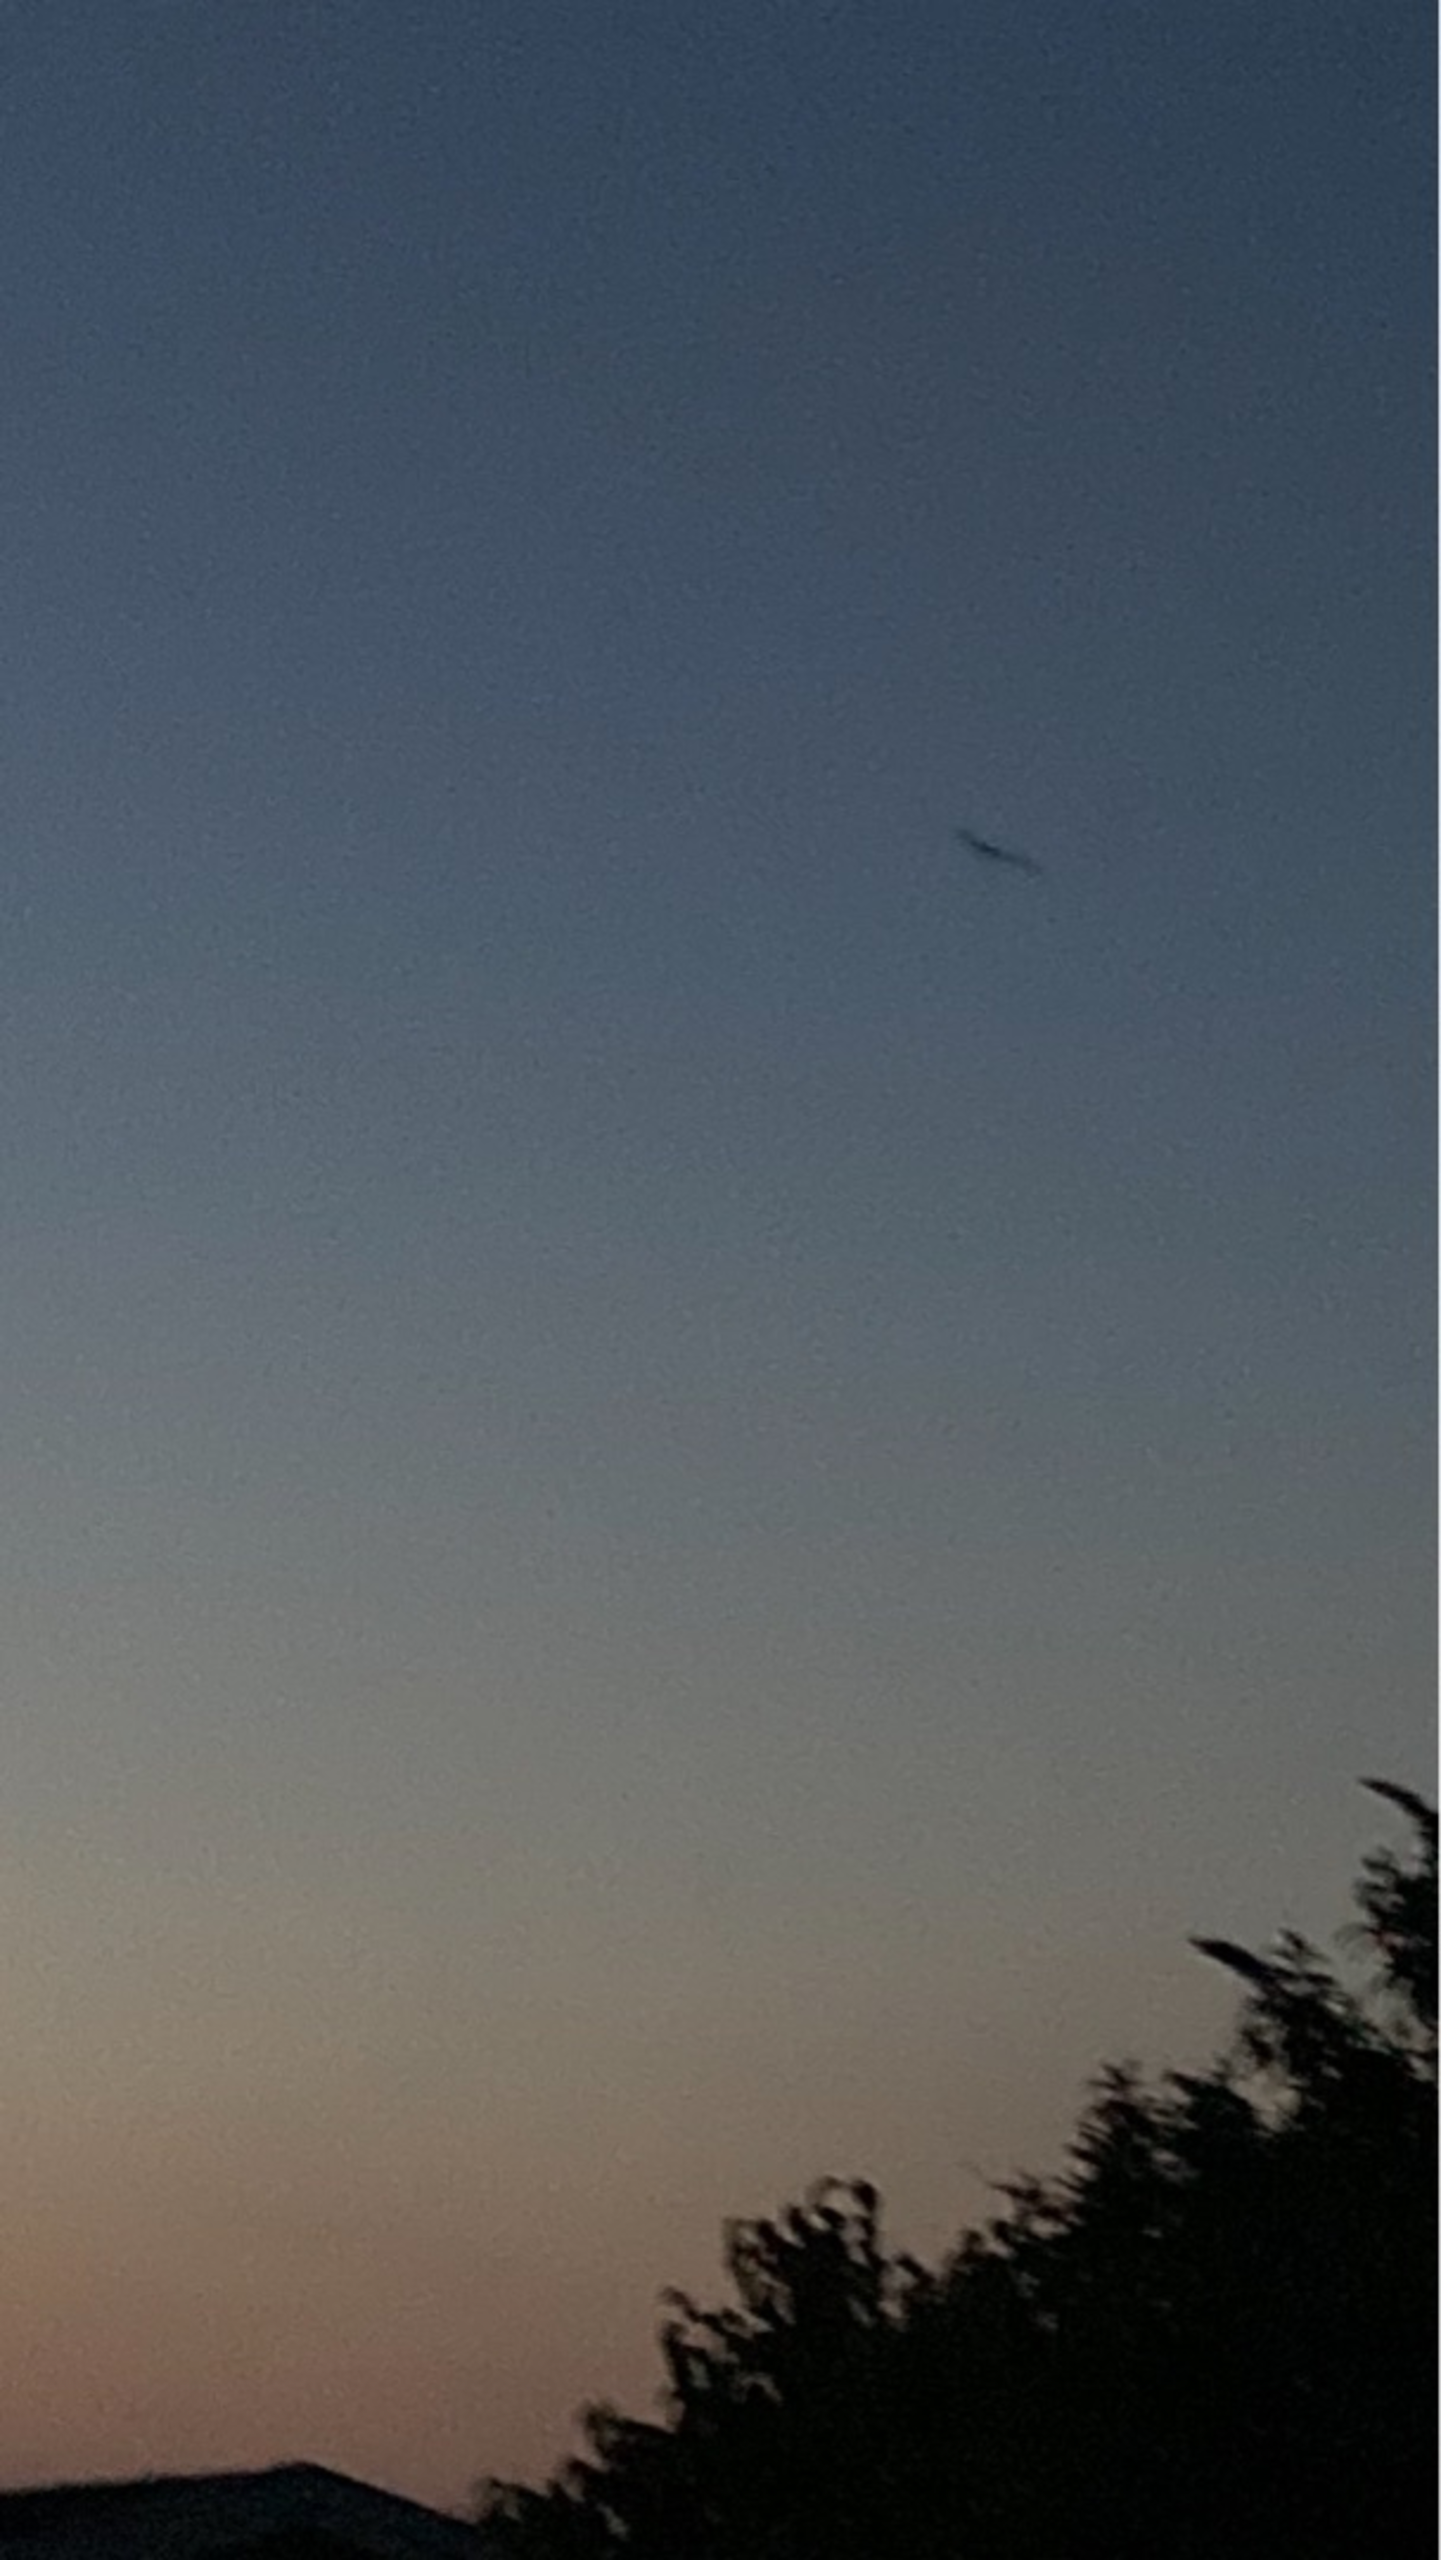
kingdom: Animalia
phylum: Chordata
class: Mammalia
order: Chiroptera
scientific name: Chiroptera
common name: Flagermus
